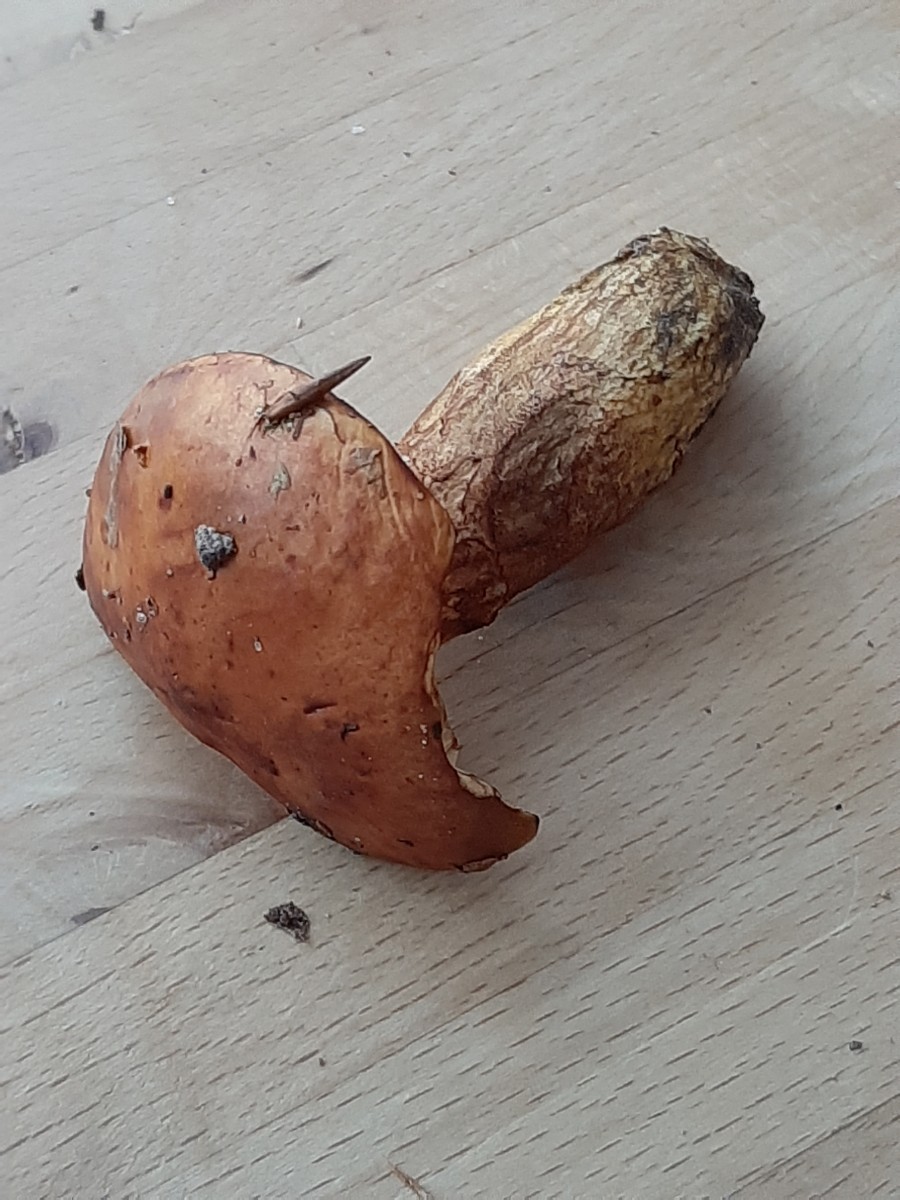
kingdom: Fungi
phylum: Basidiomycota
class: Agaricomycetes
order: Boletales
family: Suillaceae
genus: Suillus
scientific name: Suillus grevillei
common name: lærke-slimrørhat
